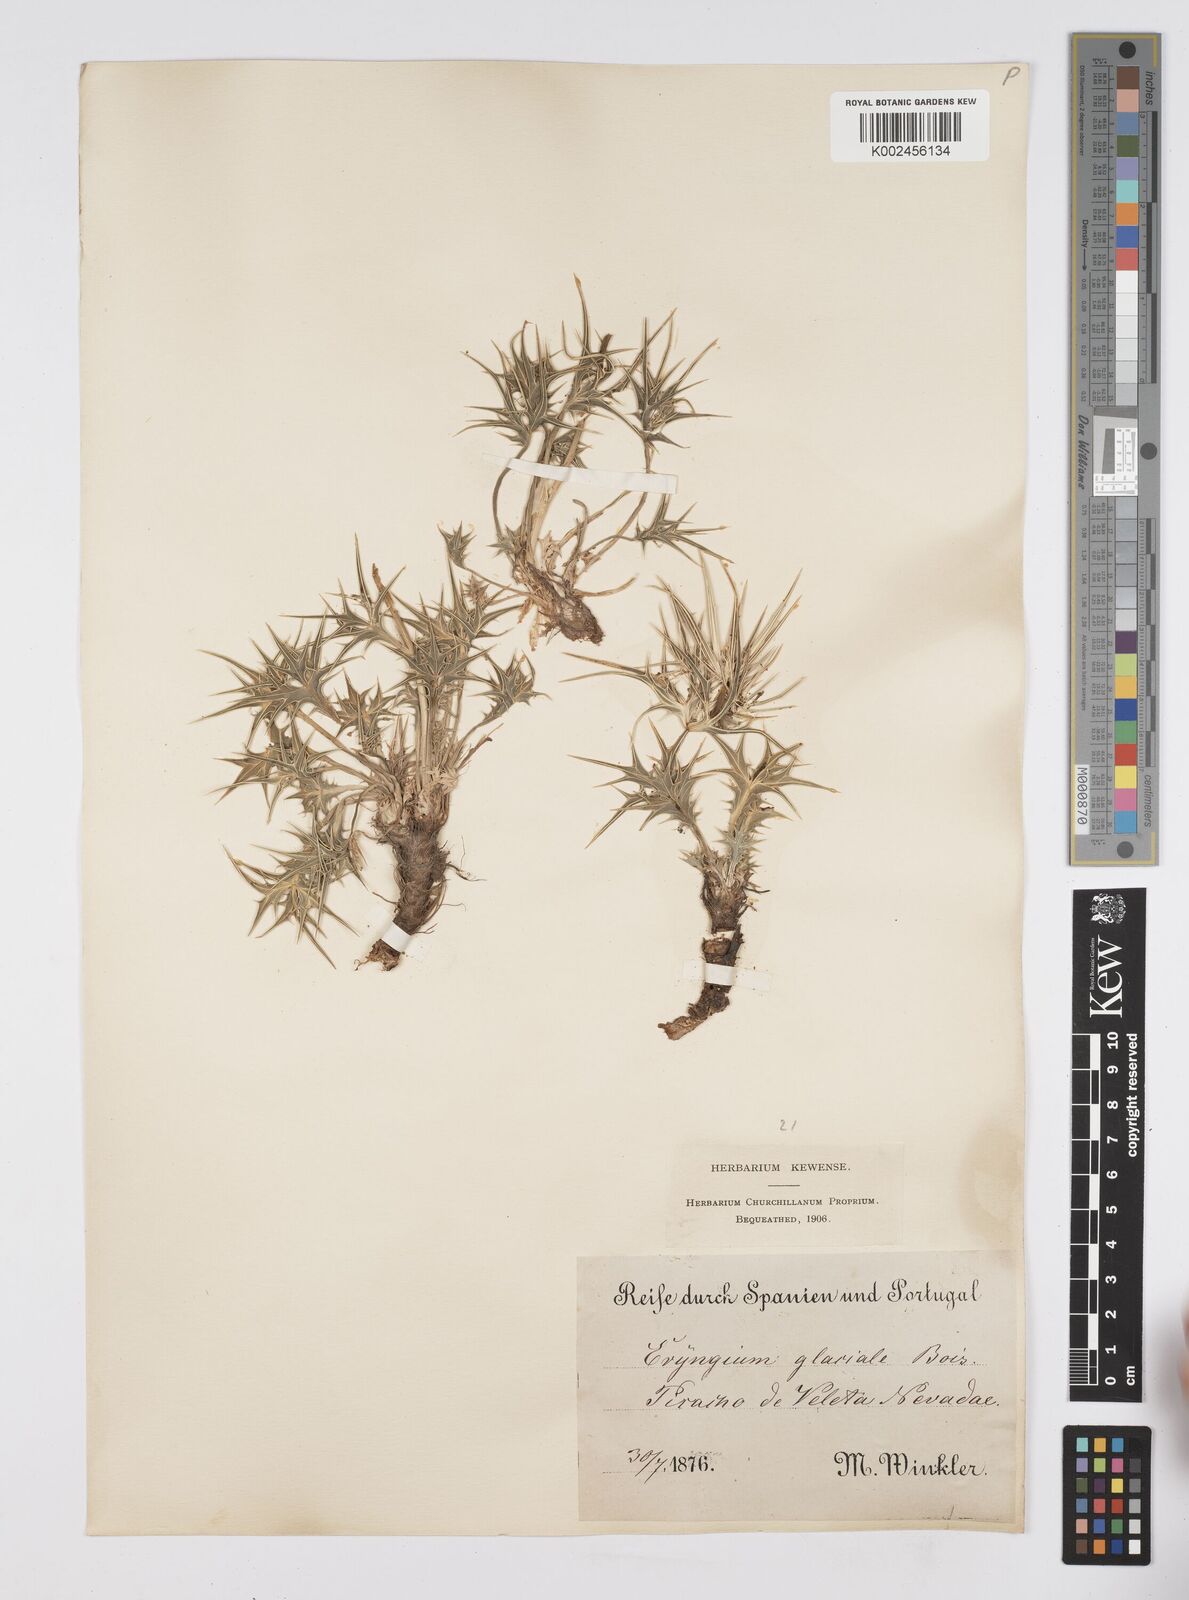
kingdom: Plantae
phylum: Tracheophyta
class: Magnoliopsida
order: Apiales
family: Apiaceae
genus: Eryngium
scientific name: Eryngium glaciale
